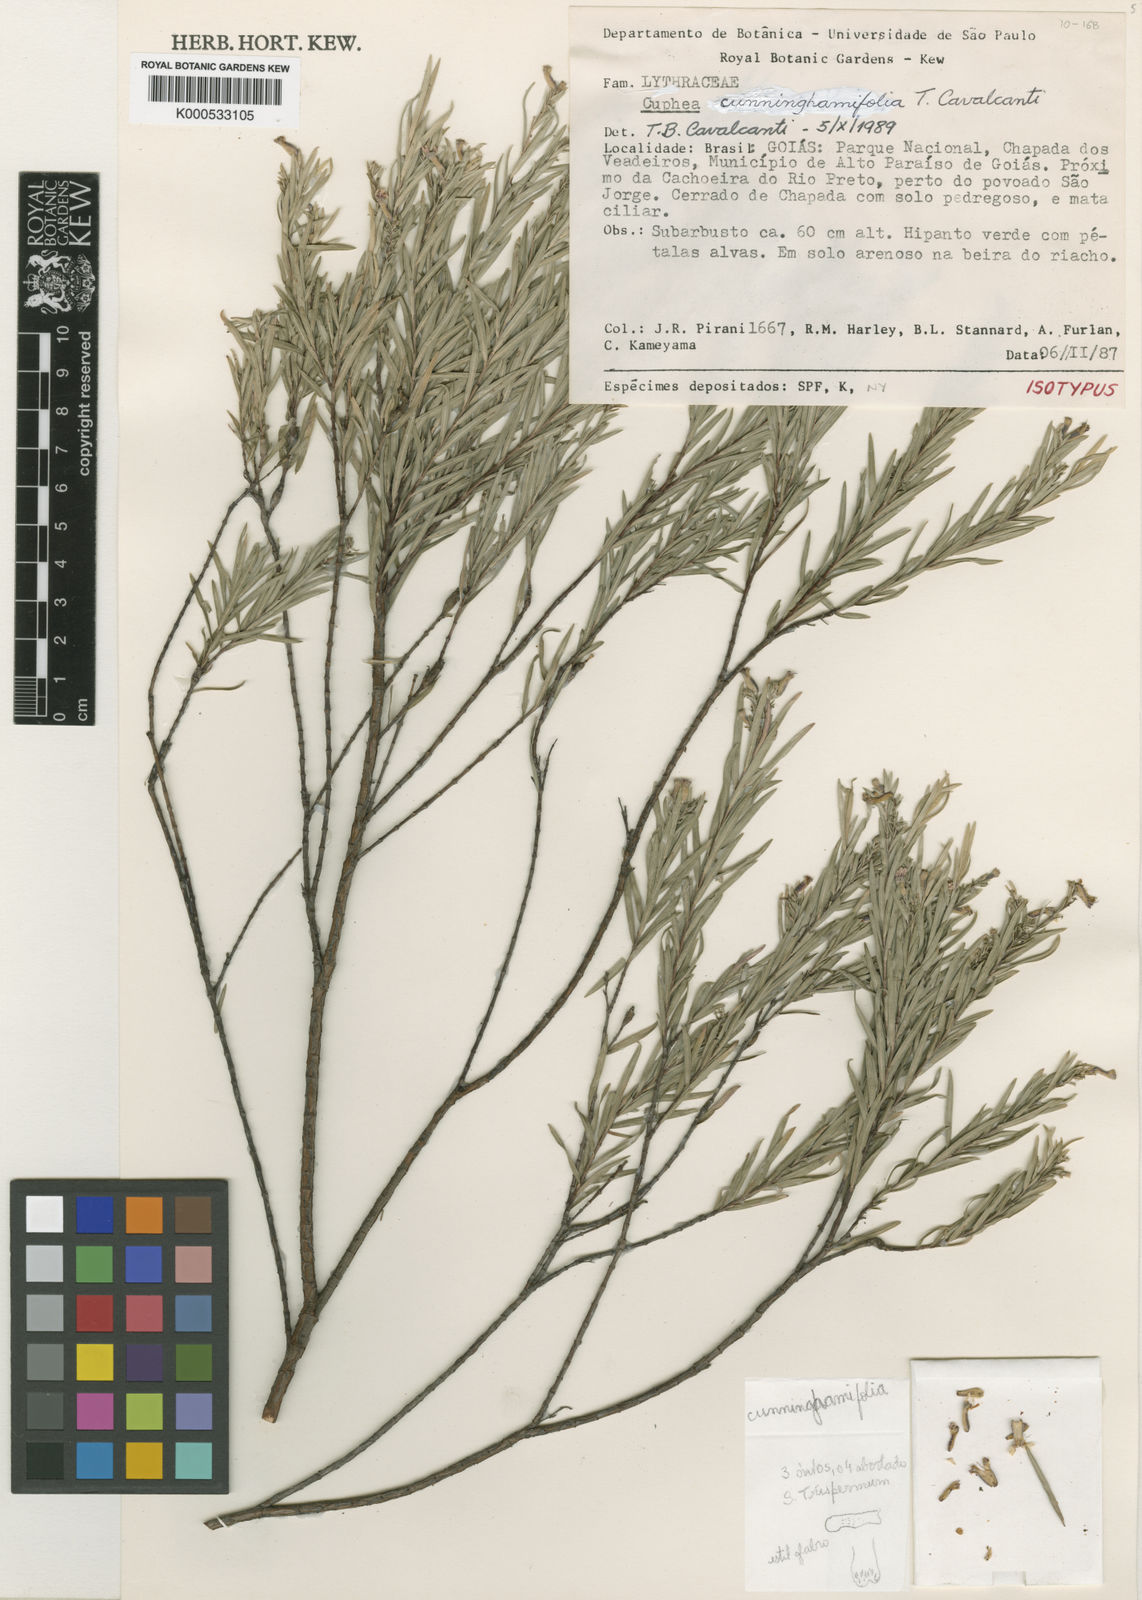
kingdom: Plantae
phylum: Tracheophyta
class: Magnoliopsida
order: Myrtales
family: Lythraceae
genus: Cuphea
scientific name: Cuphea cunninghamiifolia
